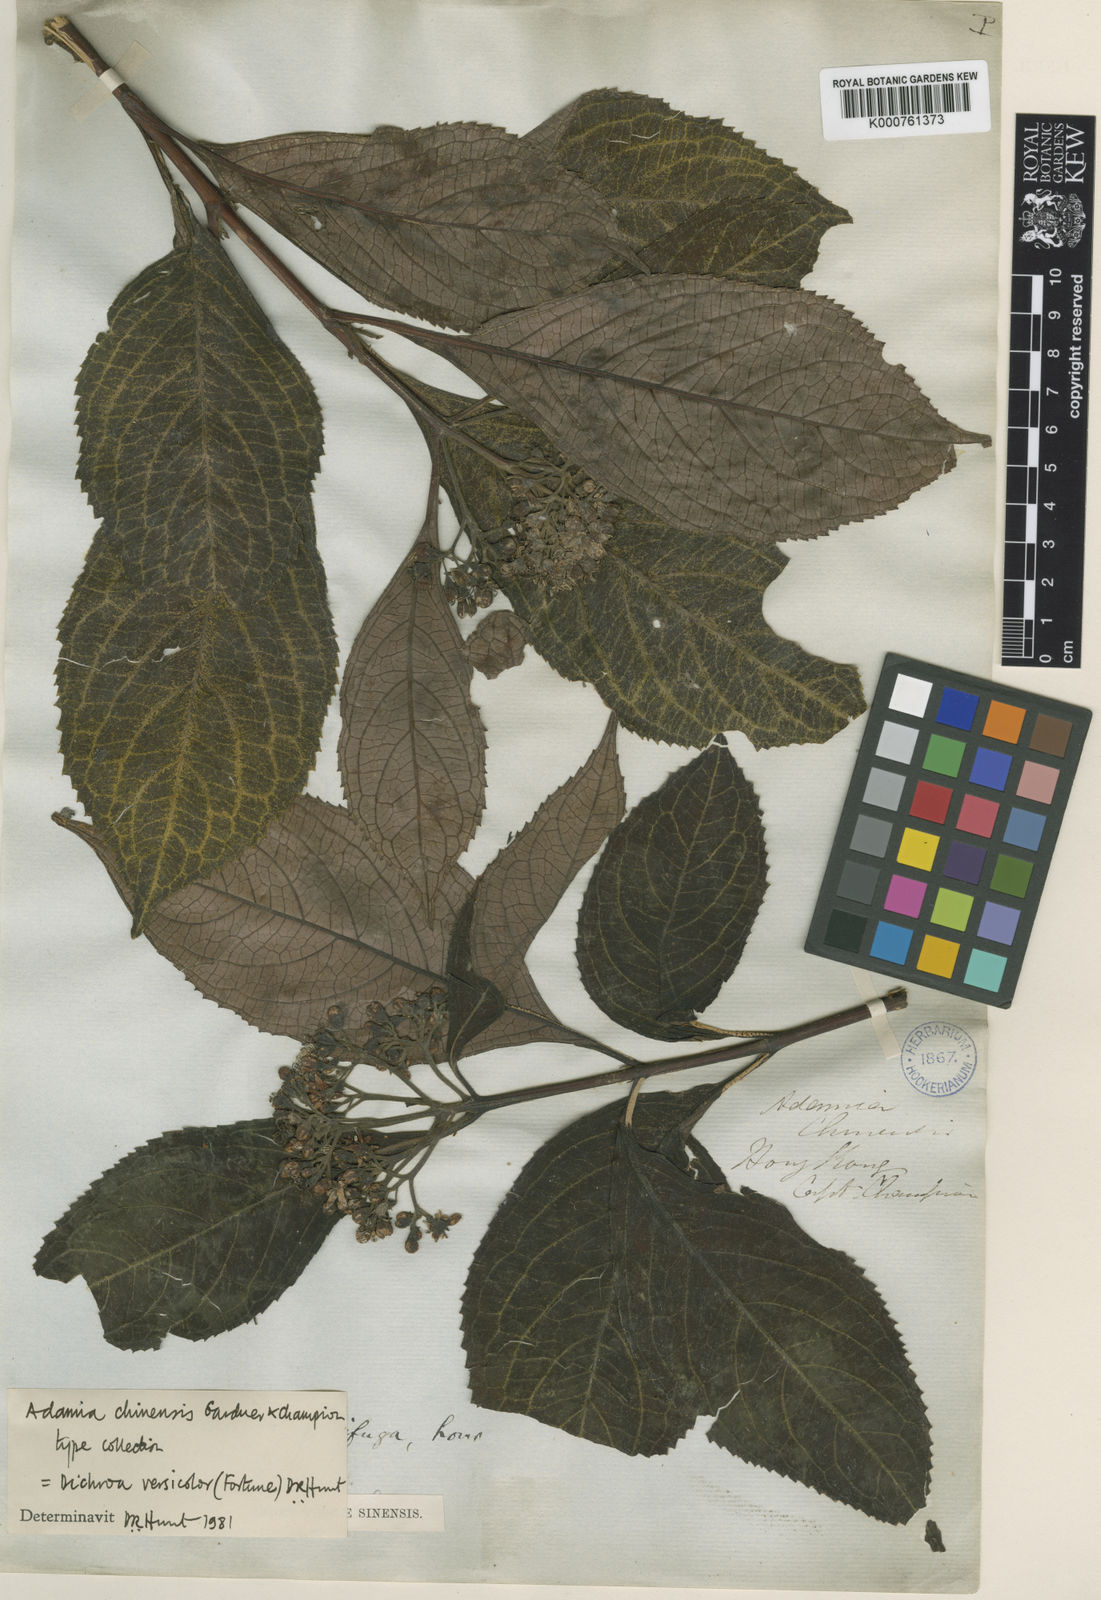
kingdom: Plantae
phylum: Tracheophyta
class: Magnoliopsida
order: Cornales
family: Hydrangeaceae
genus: Hydrangea
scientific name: Hydrangea febrifuga
